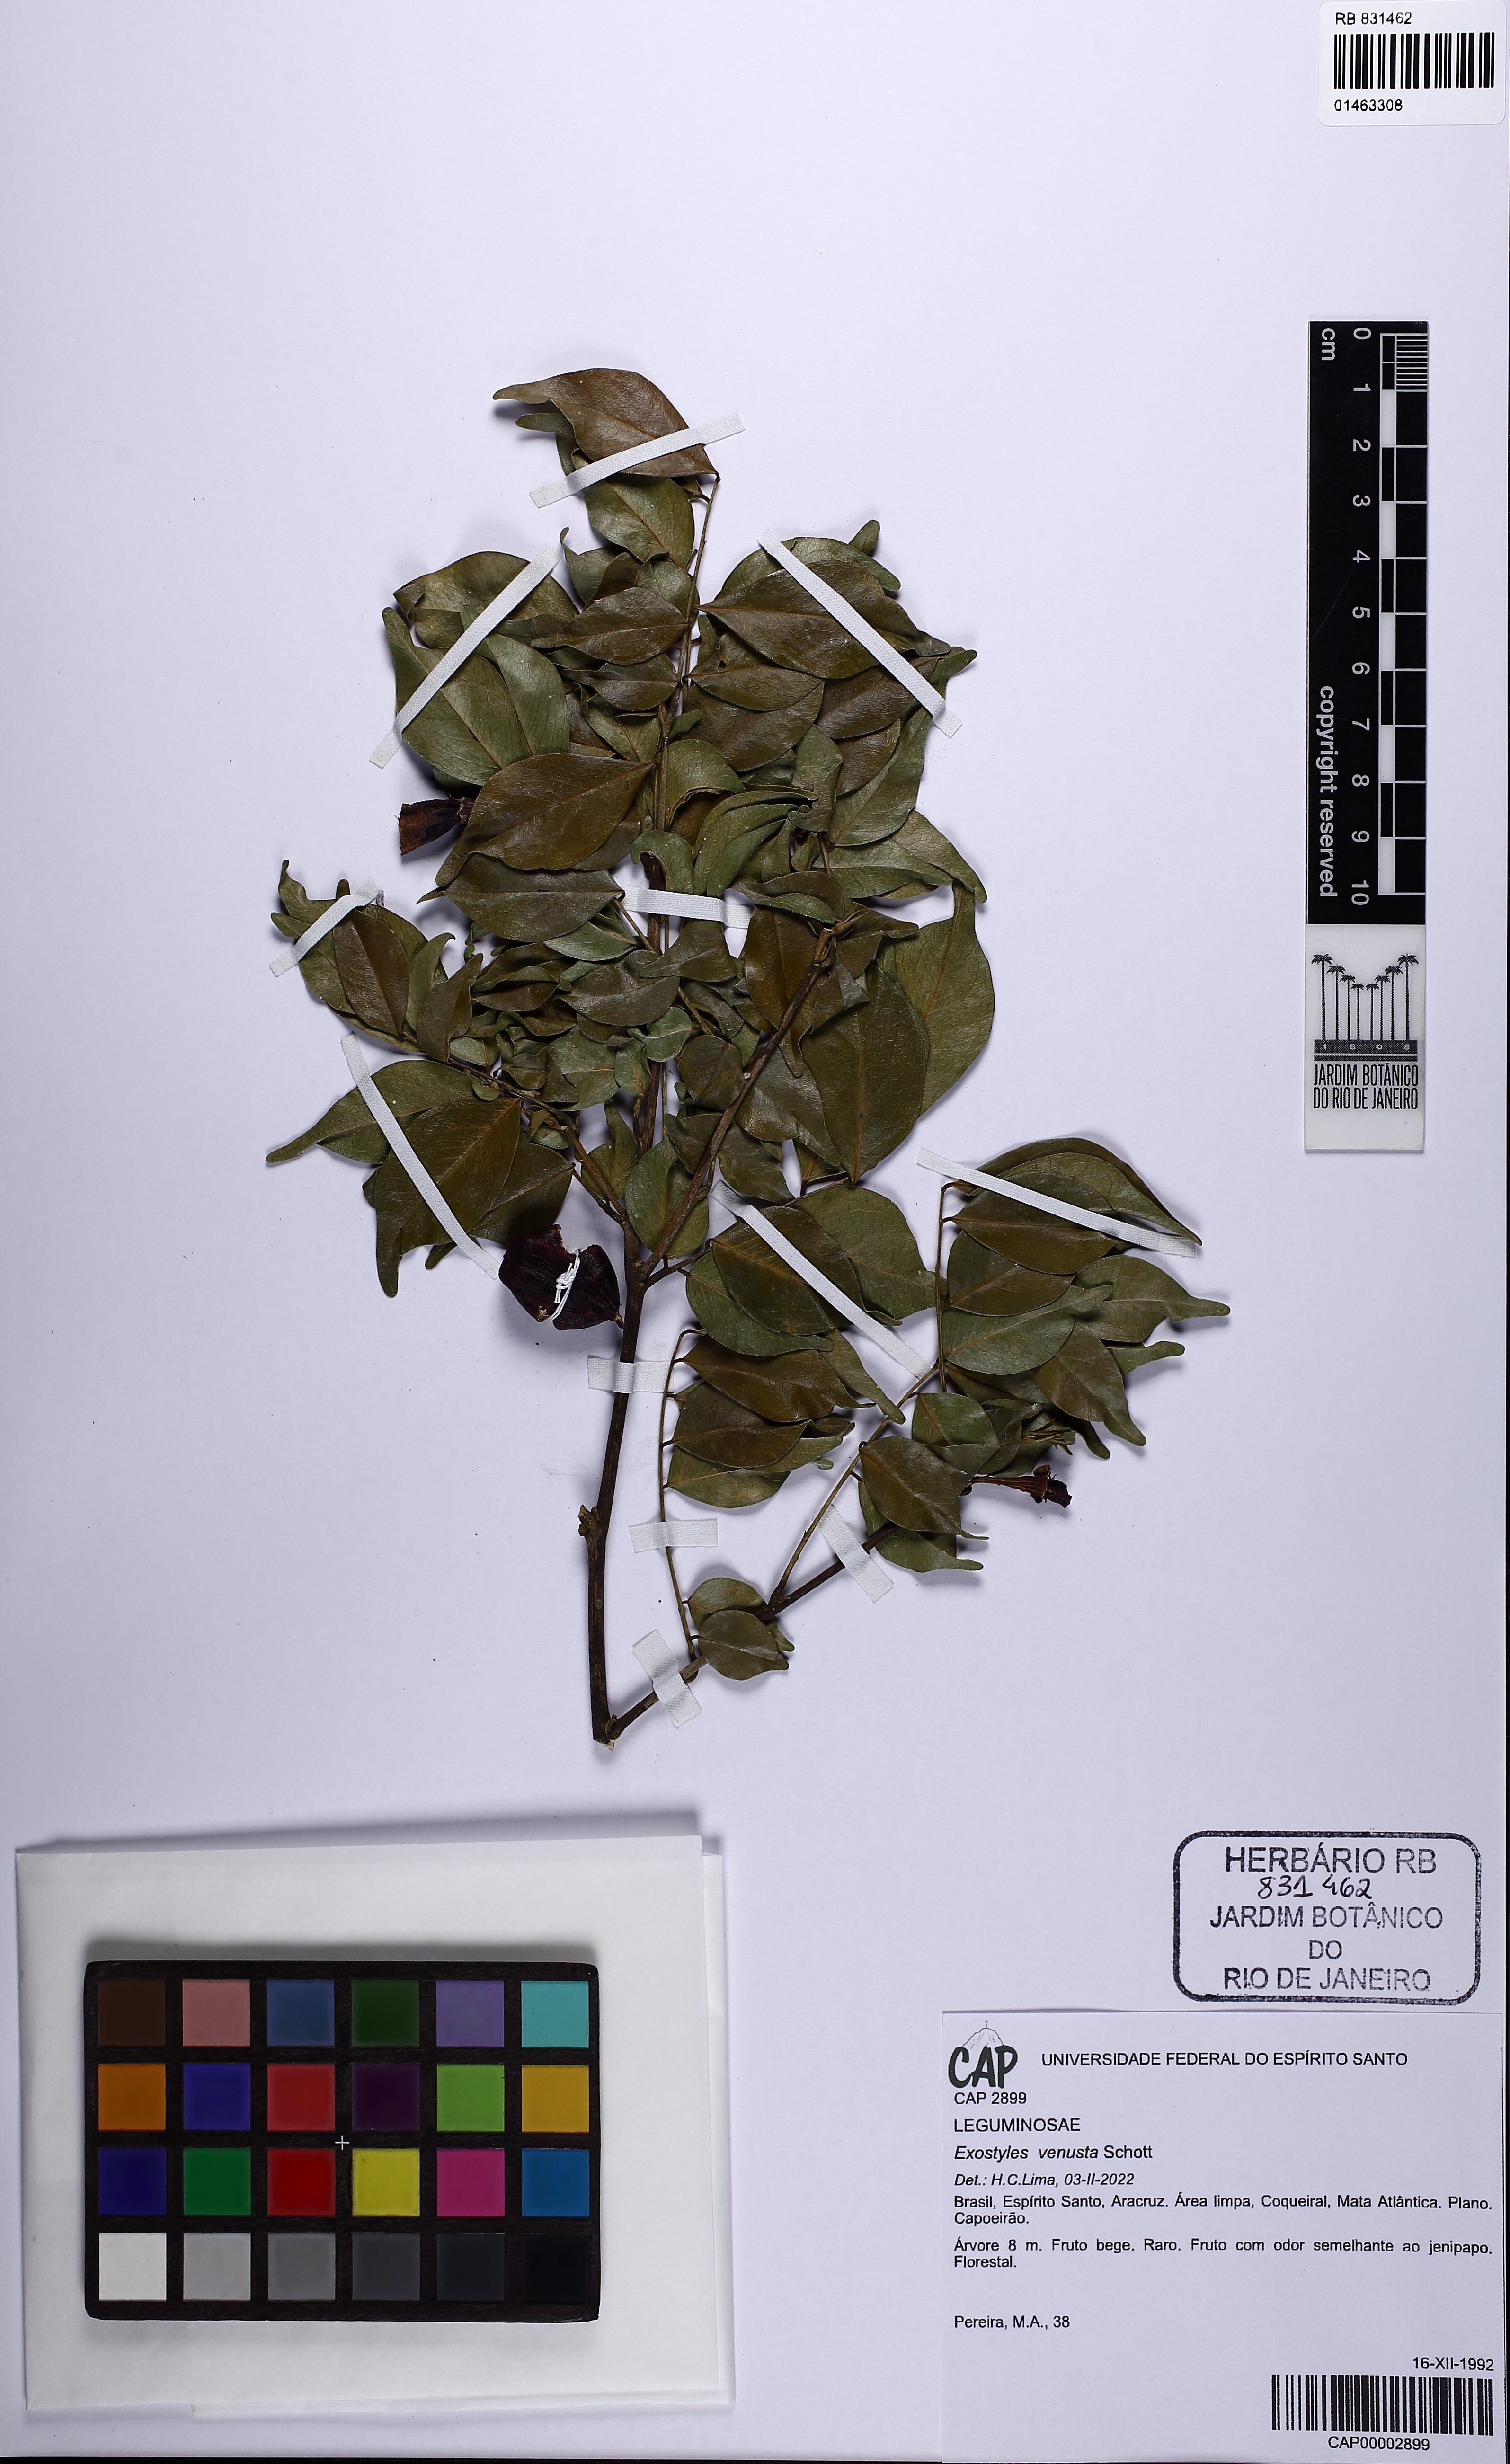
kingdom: Plantae
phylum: Tracheophyta
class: Magnoliopsida
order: Fabales
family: Fabaceae
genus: Exostyles
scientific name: Exostyles venusta
